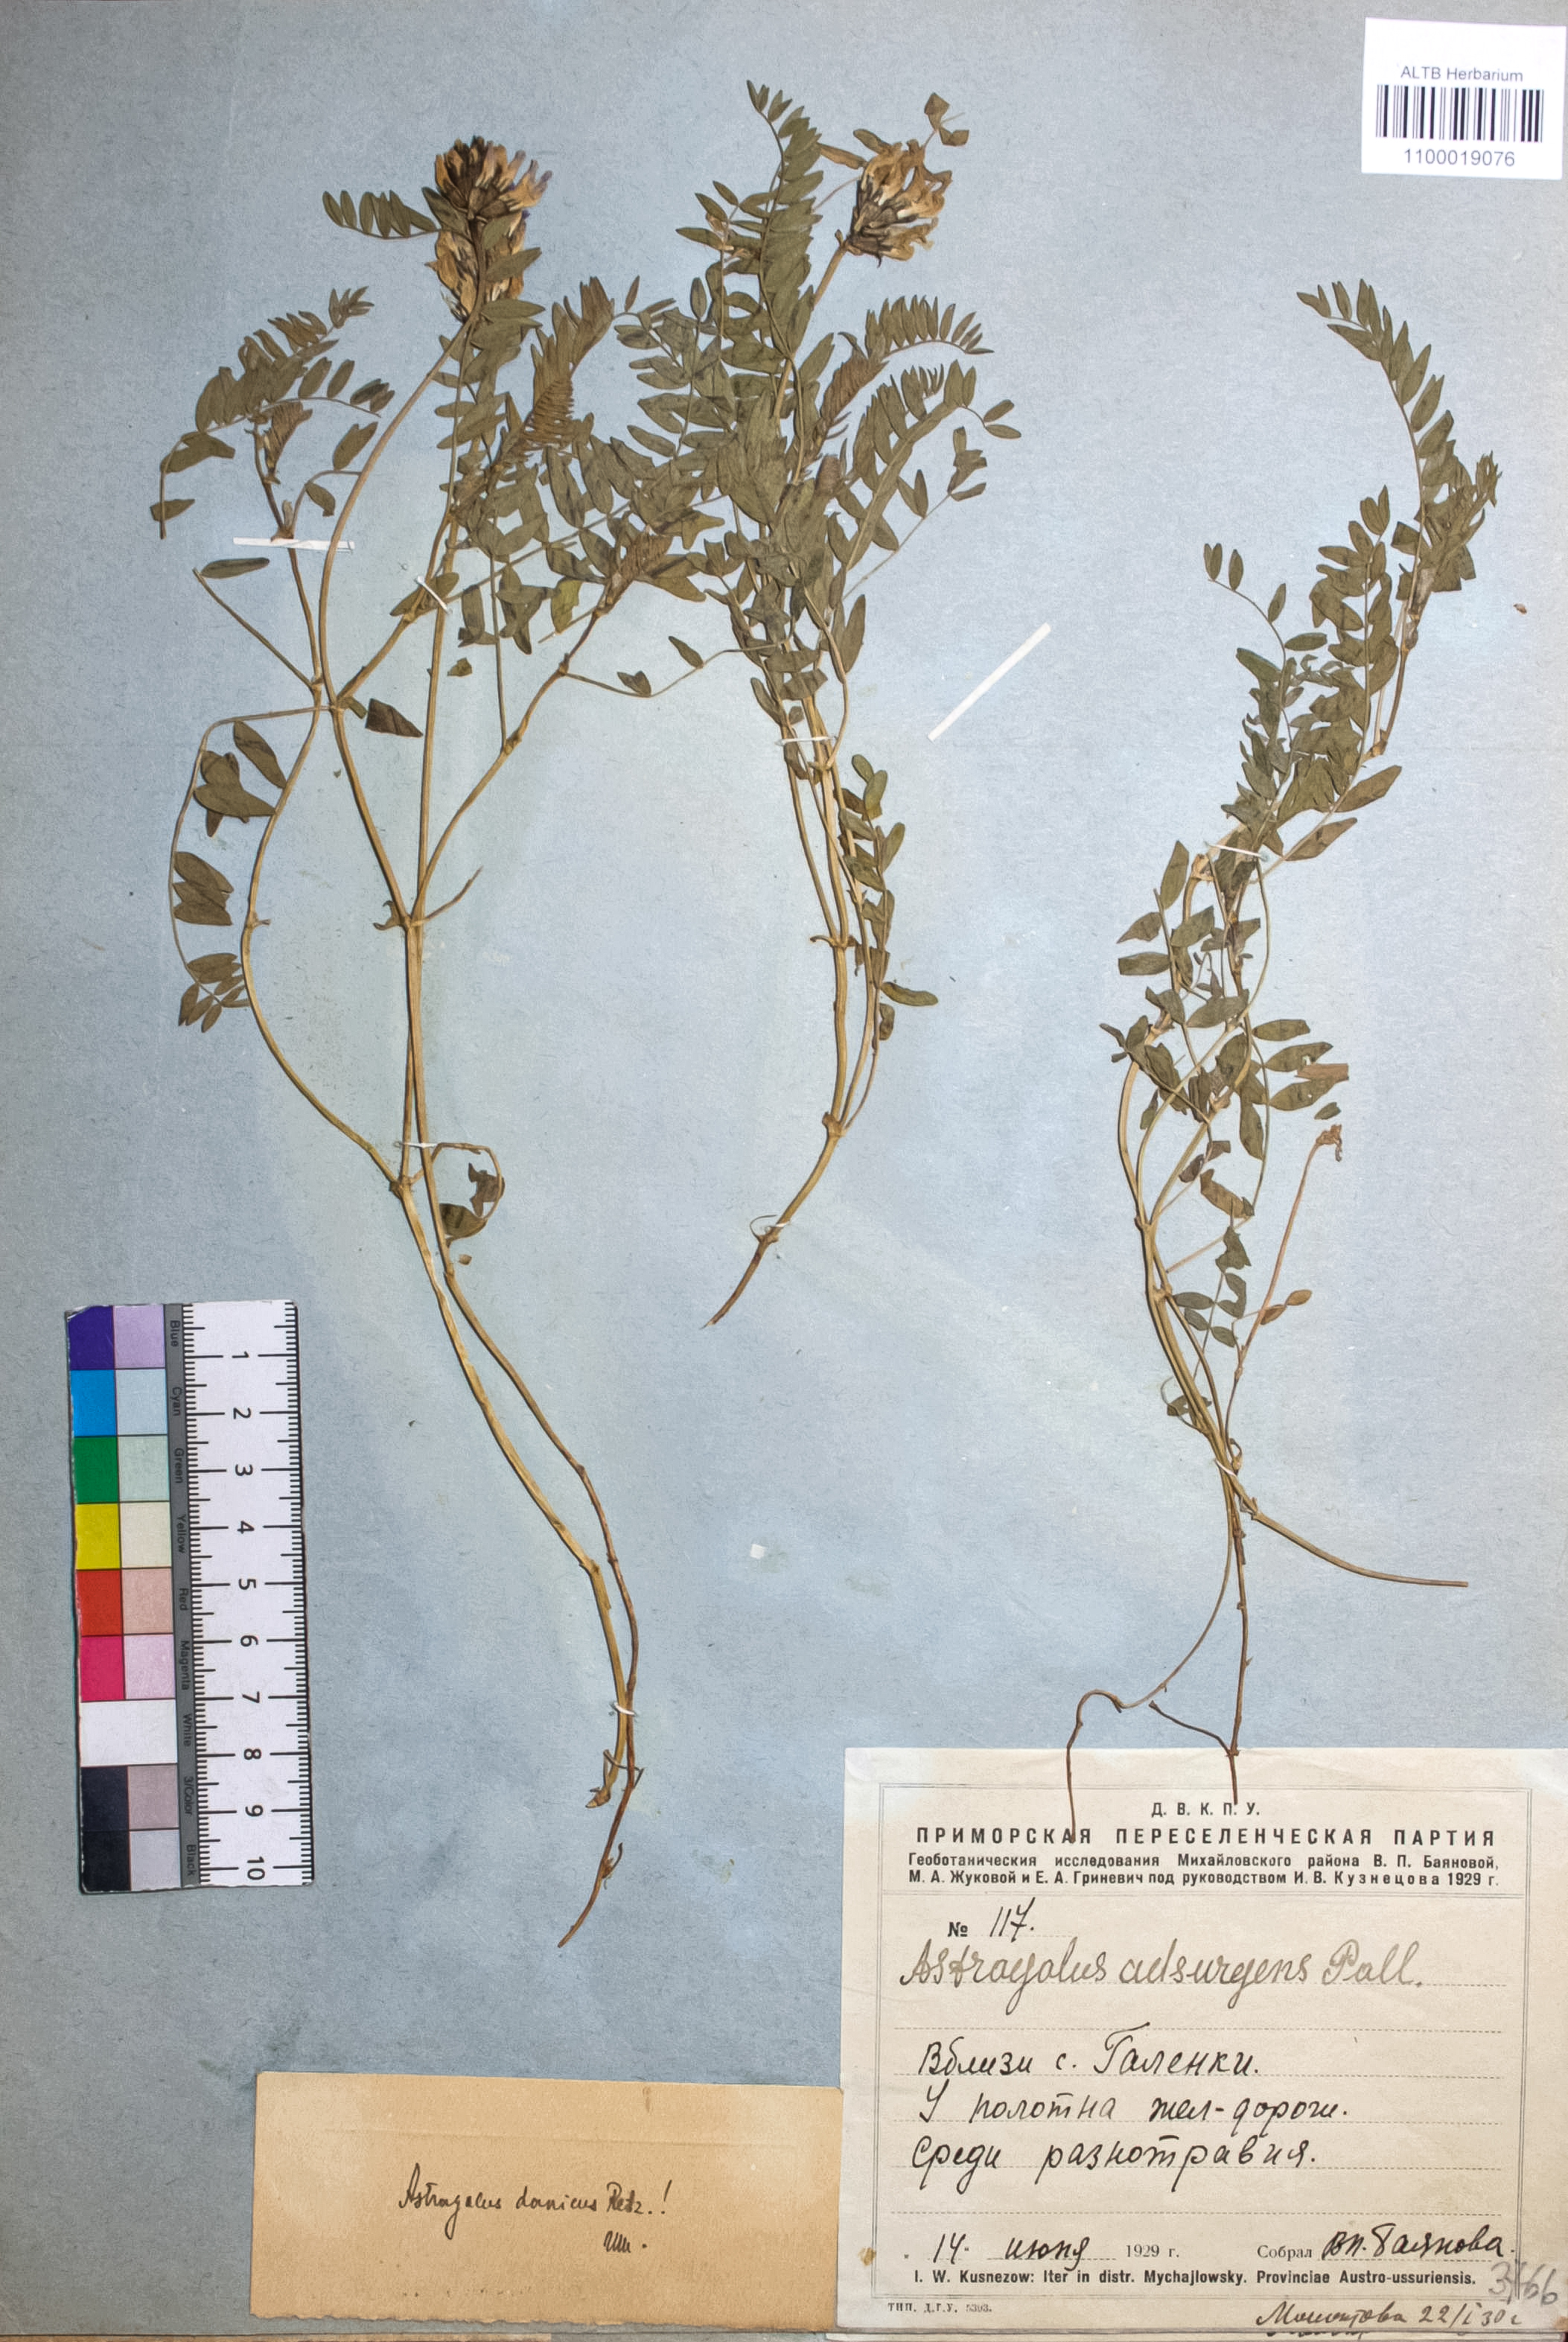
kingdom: Plantae
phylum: Tracheophyta
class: Magnoliopsida
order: Fabales
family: Fabaceae
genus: Astragalus
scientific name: Astragalus danicus
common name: Purple milk-vetch
